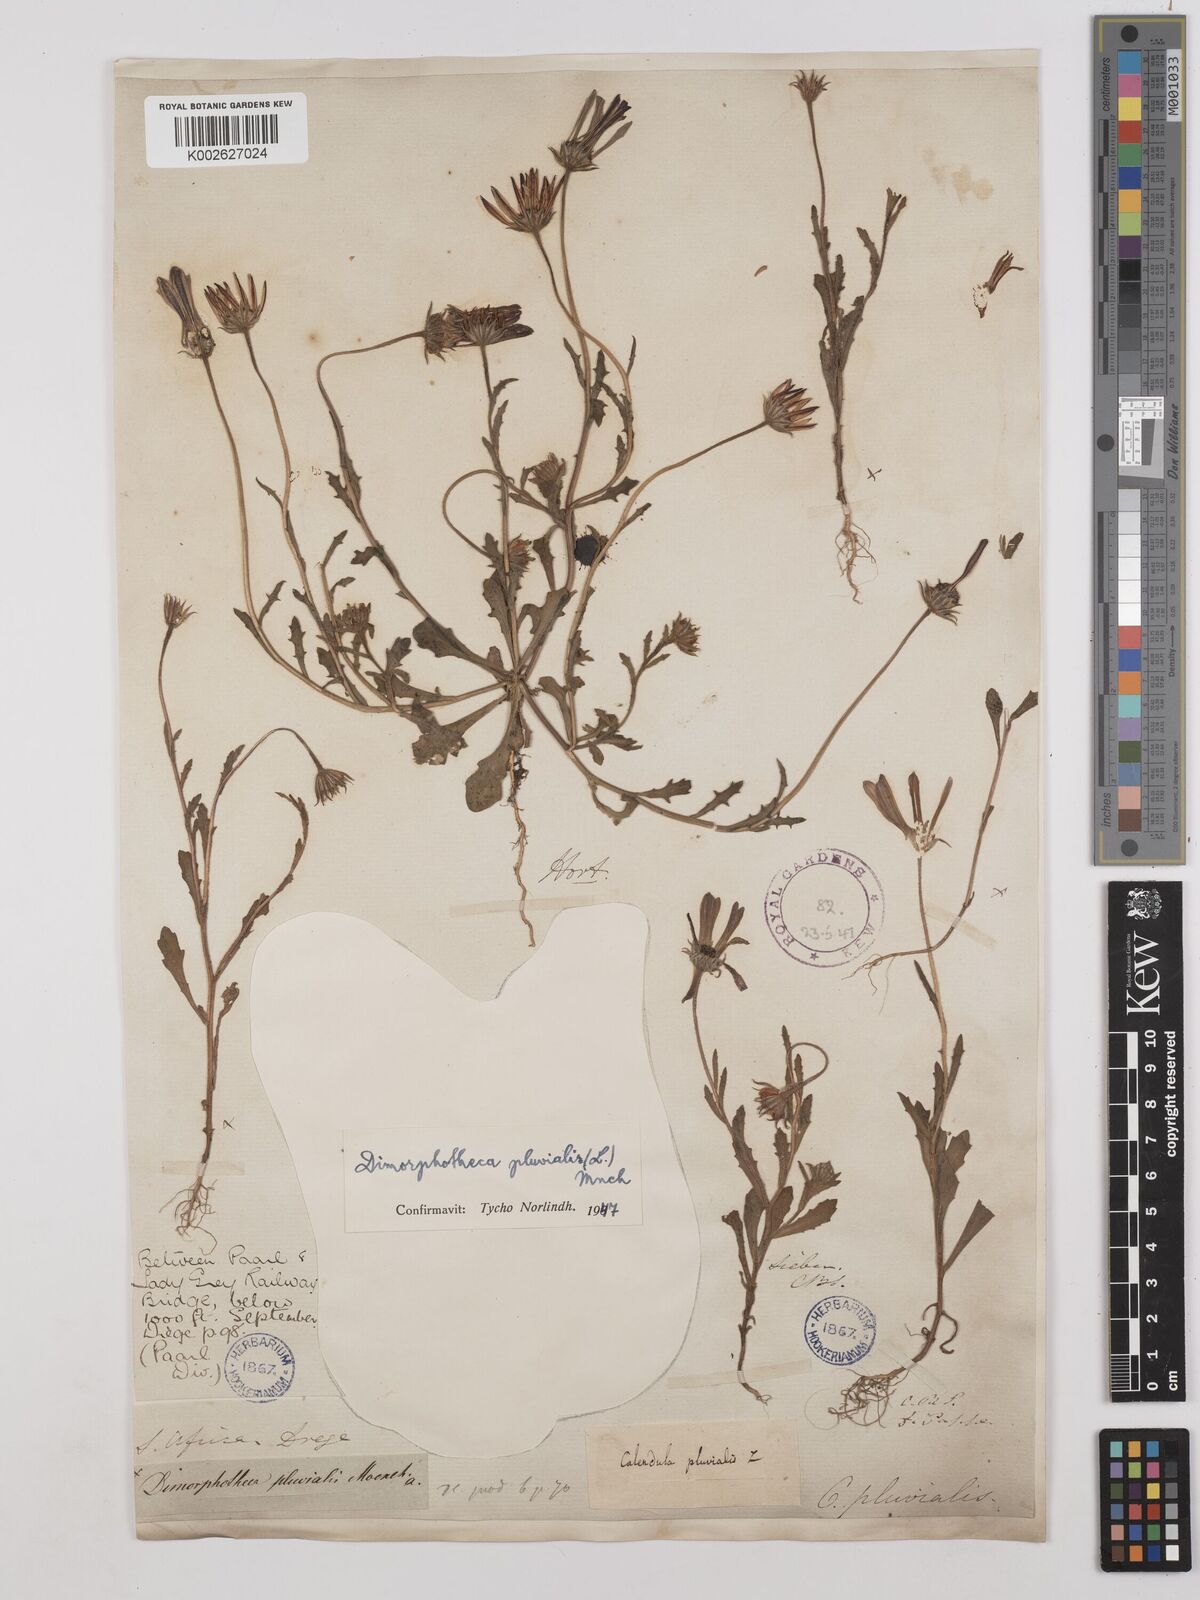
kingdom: Plantae
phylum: Tracheophyta
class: Magnoliopsida
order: Asterales
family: Asteraceae
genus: Dimorphotheca
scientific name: Dimorphotheca pluvialis
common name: Weather prophet
